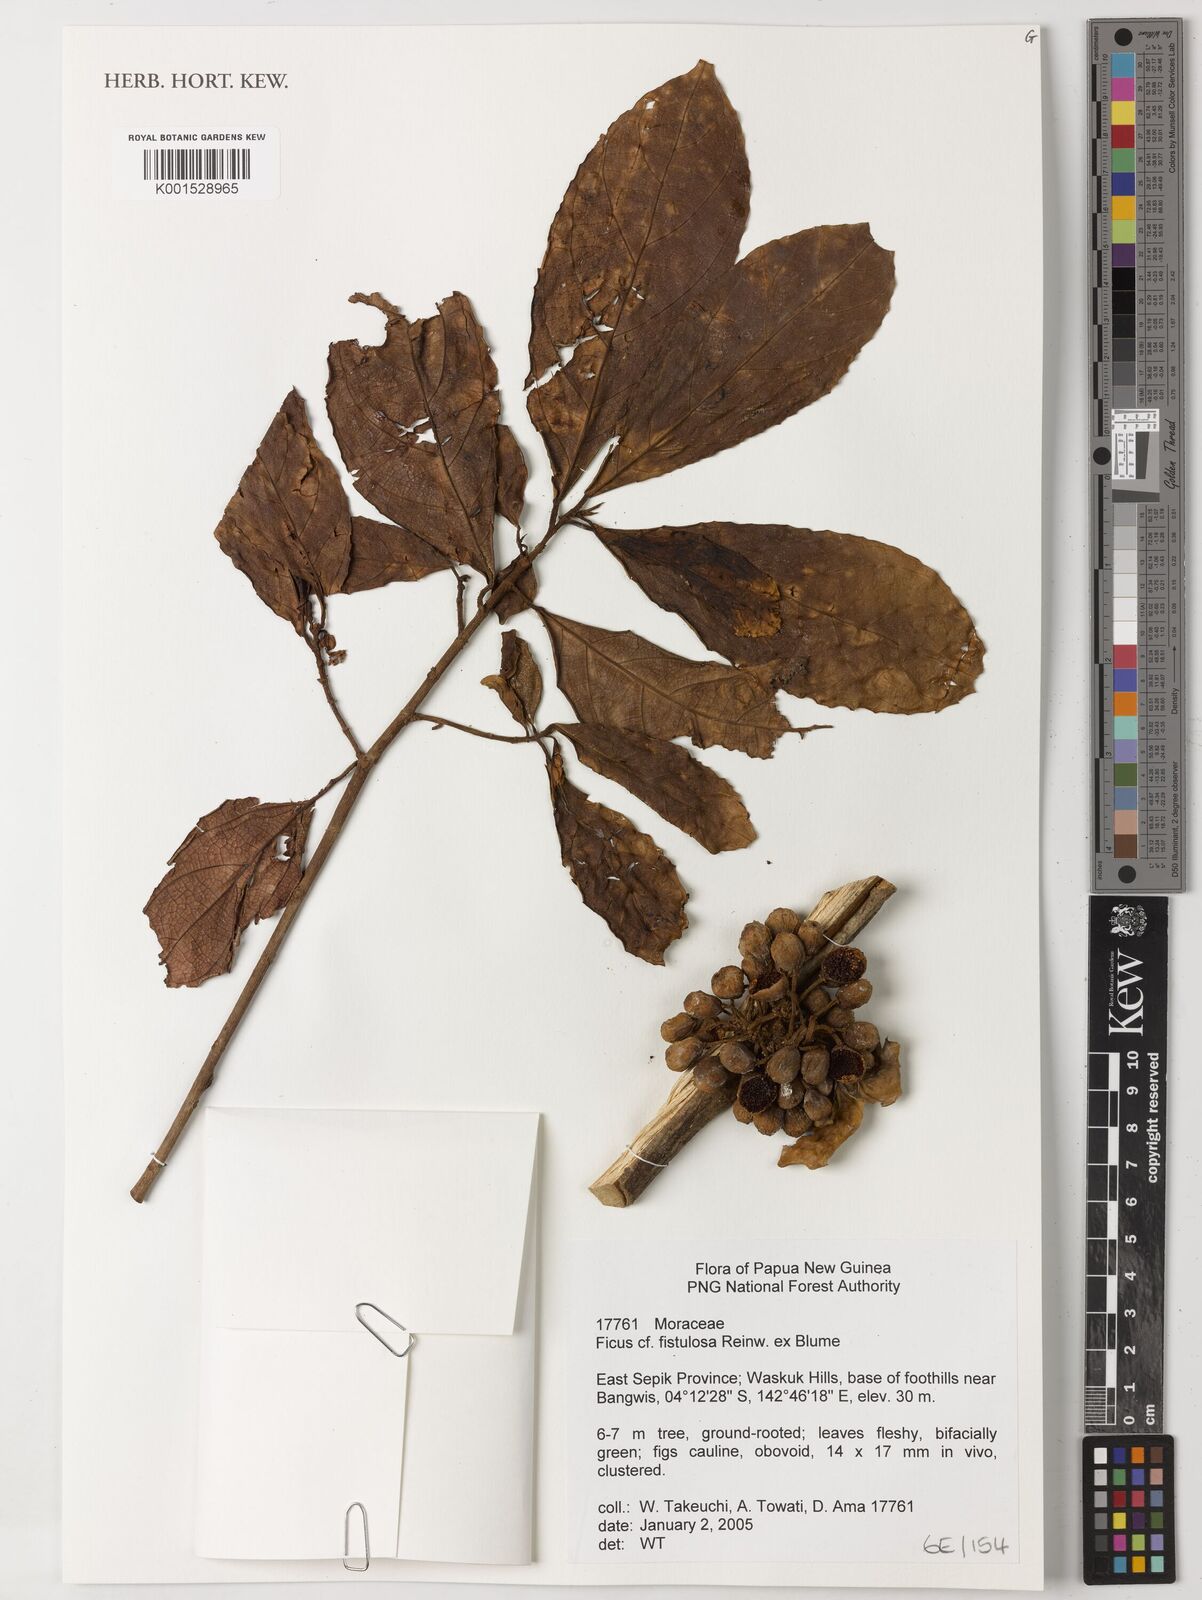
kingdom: Plantae
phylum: Tracheophyta
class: Magnoliopsida
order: Rosales
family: Moraceae
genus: Ficus
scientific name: Ficus fistulosa
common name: Figs
